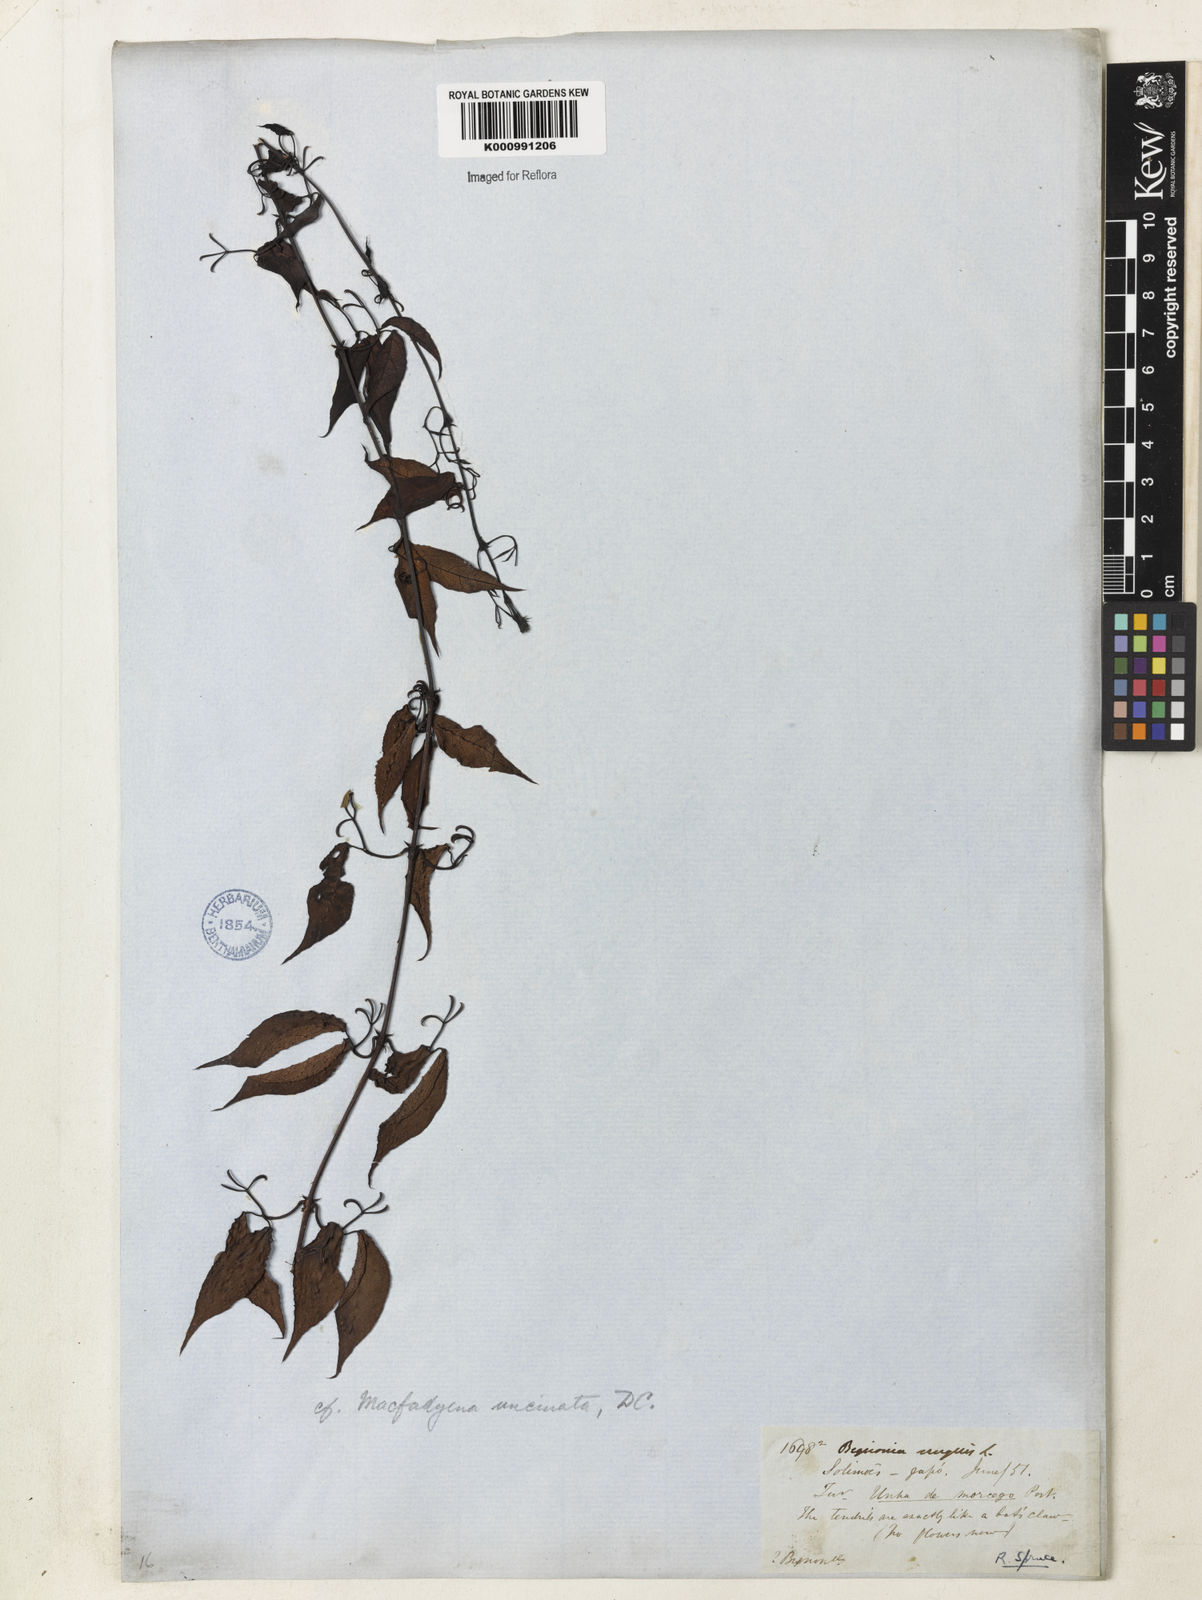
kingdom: Plantae
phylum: Tracheophyta
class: Magnoliopsida
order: Lamiales
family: Bignoniaceae
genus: Dolichandra
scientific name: Dolichandra uncata
